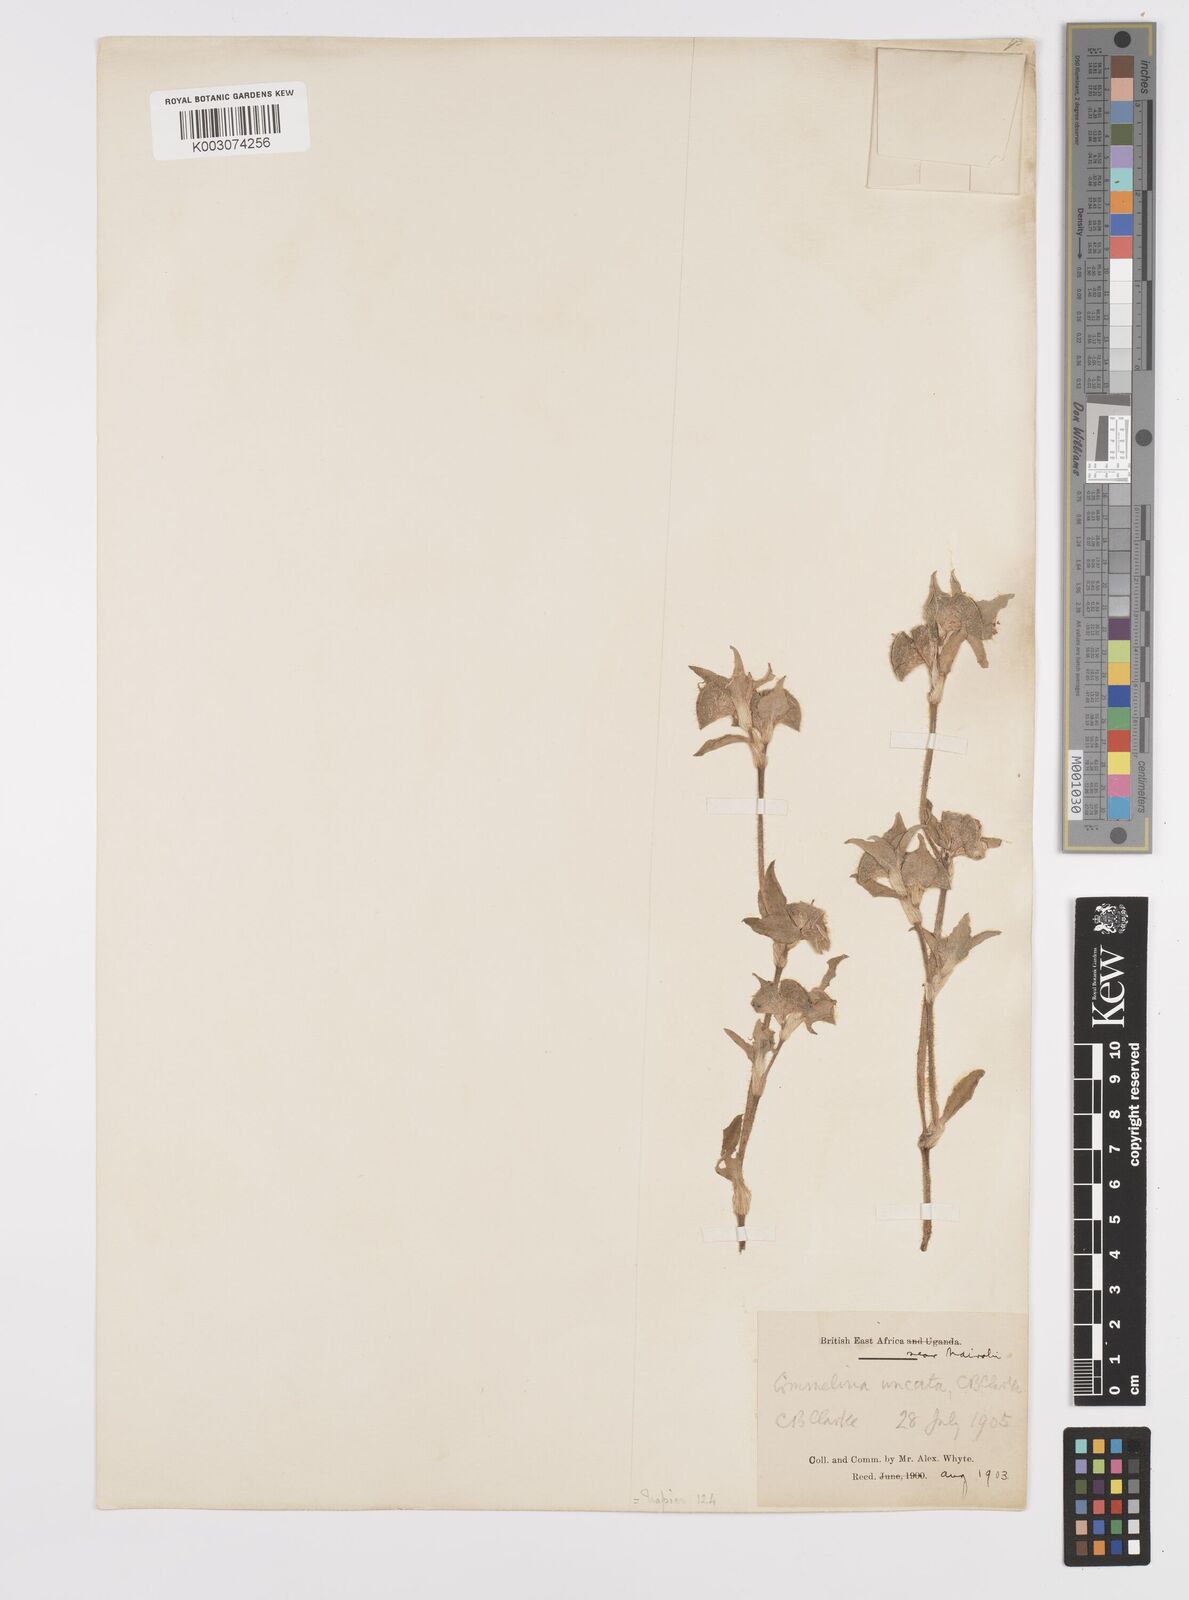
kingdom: Plantae
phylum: Tracheophyta
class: Liliopsida
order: Commelinales
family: Commelinaceae
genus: Commelina
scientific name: Commelina benghalensis
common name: Jio
